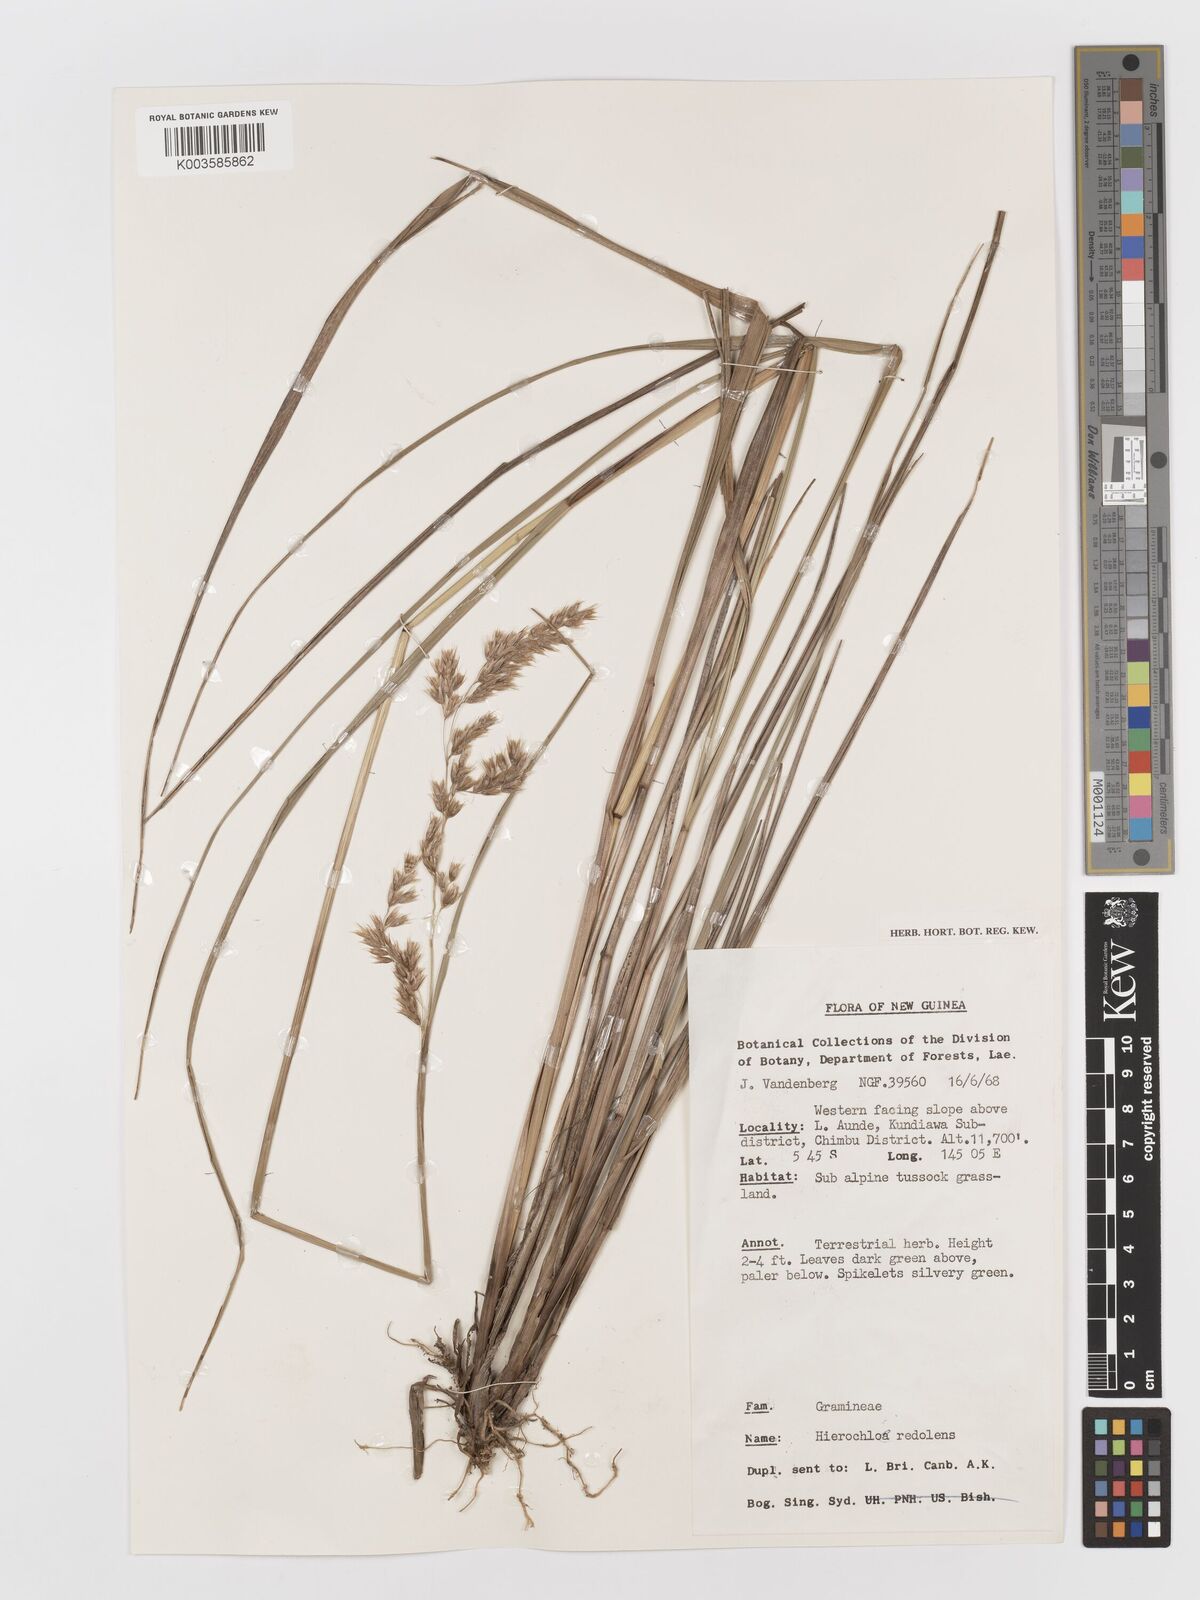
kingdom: Plantae
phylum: Tracheophyta
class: Liliopsida
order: Poales
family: Poaceae
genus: Anthoxanthum
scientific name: Anthoxanthum redolens
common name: Sweet holy grass
